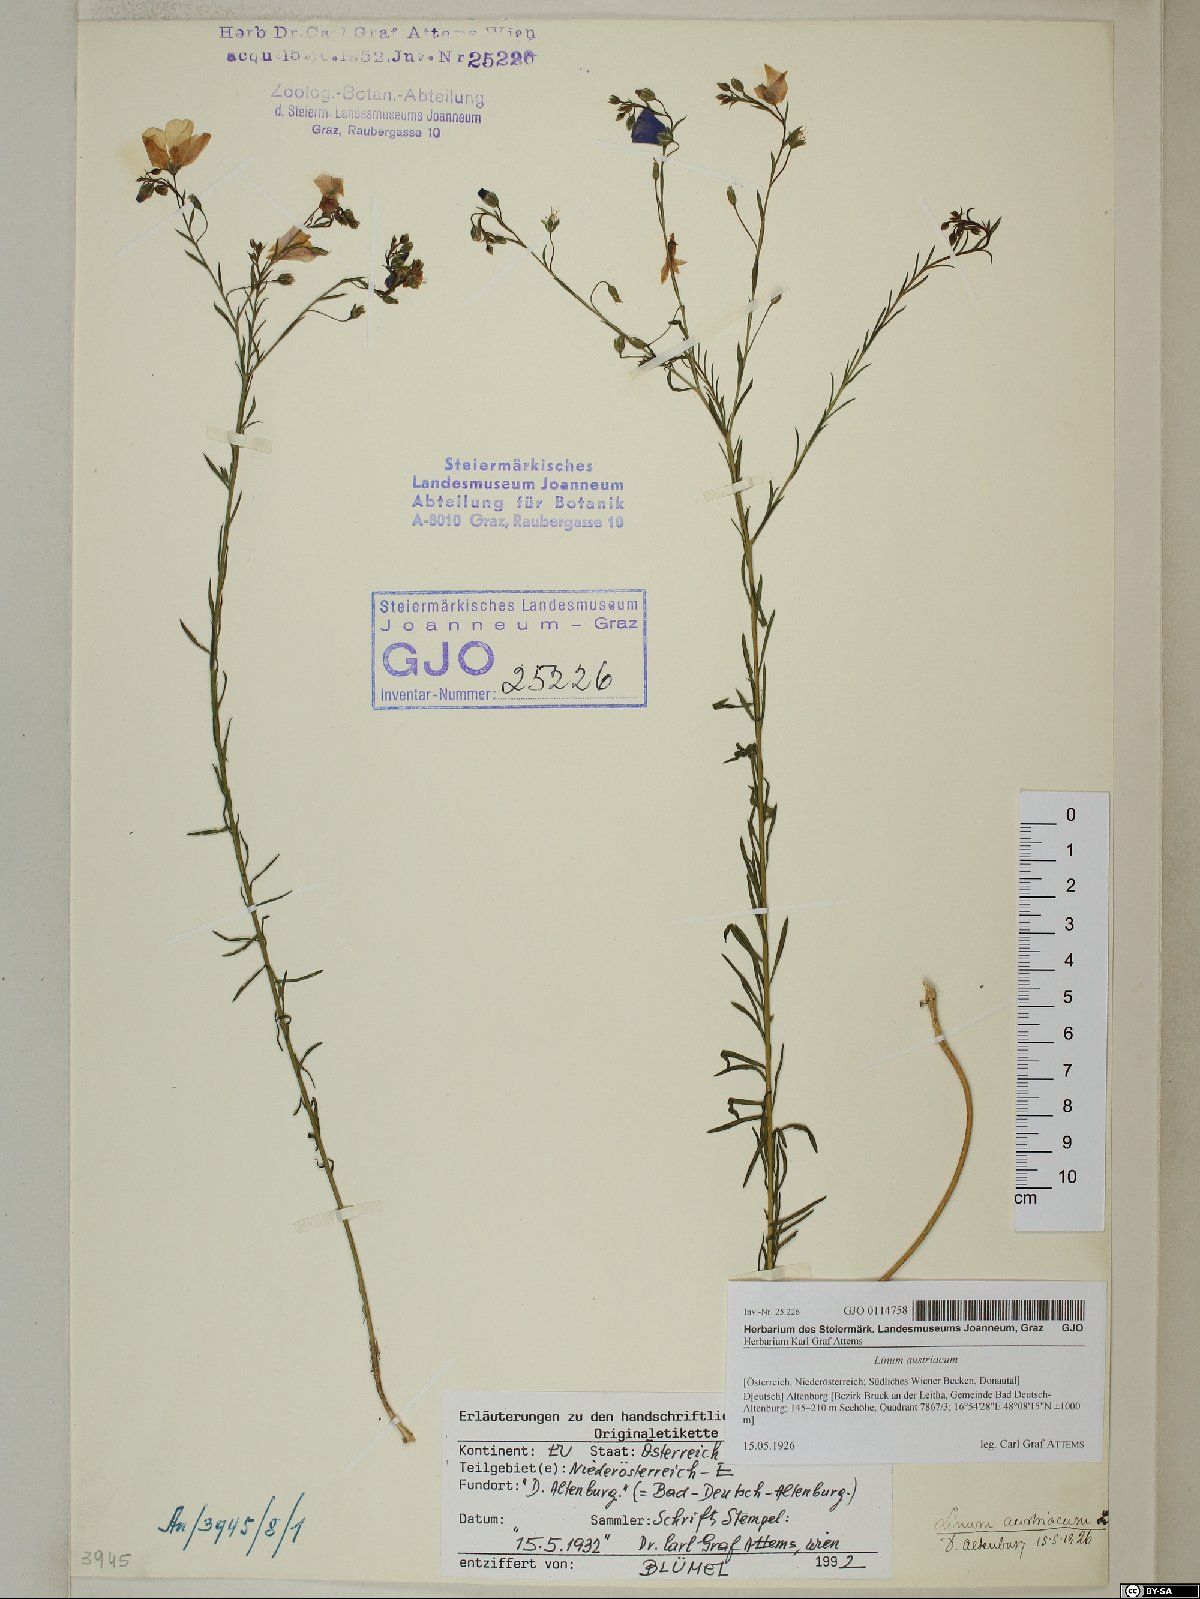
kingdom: Plantae
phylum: Tracheophyta
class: Magnoliopsida
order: Malpighiales
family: Linaceae
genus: Linum
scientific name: Linum austriacum
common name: Austrian flax
